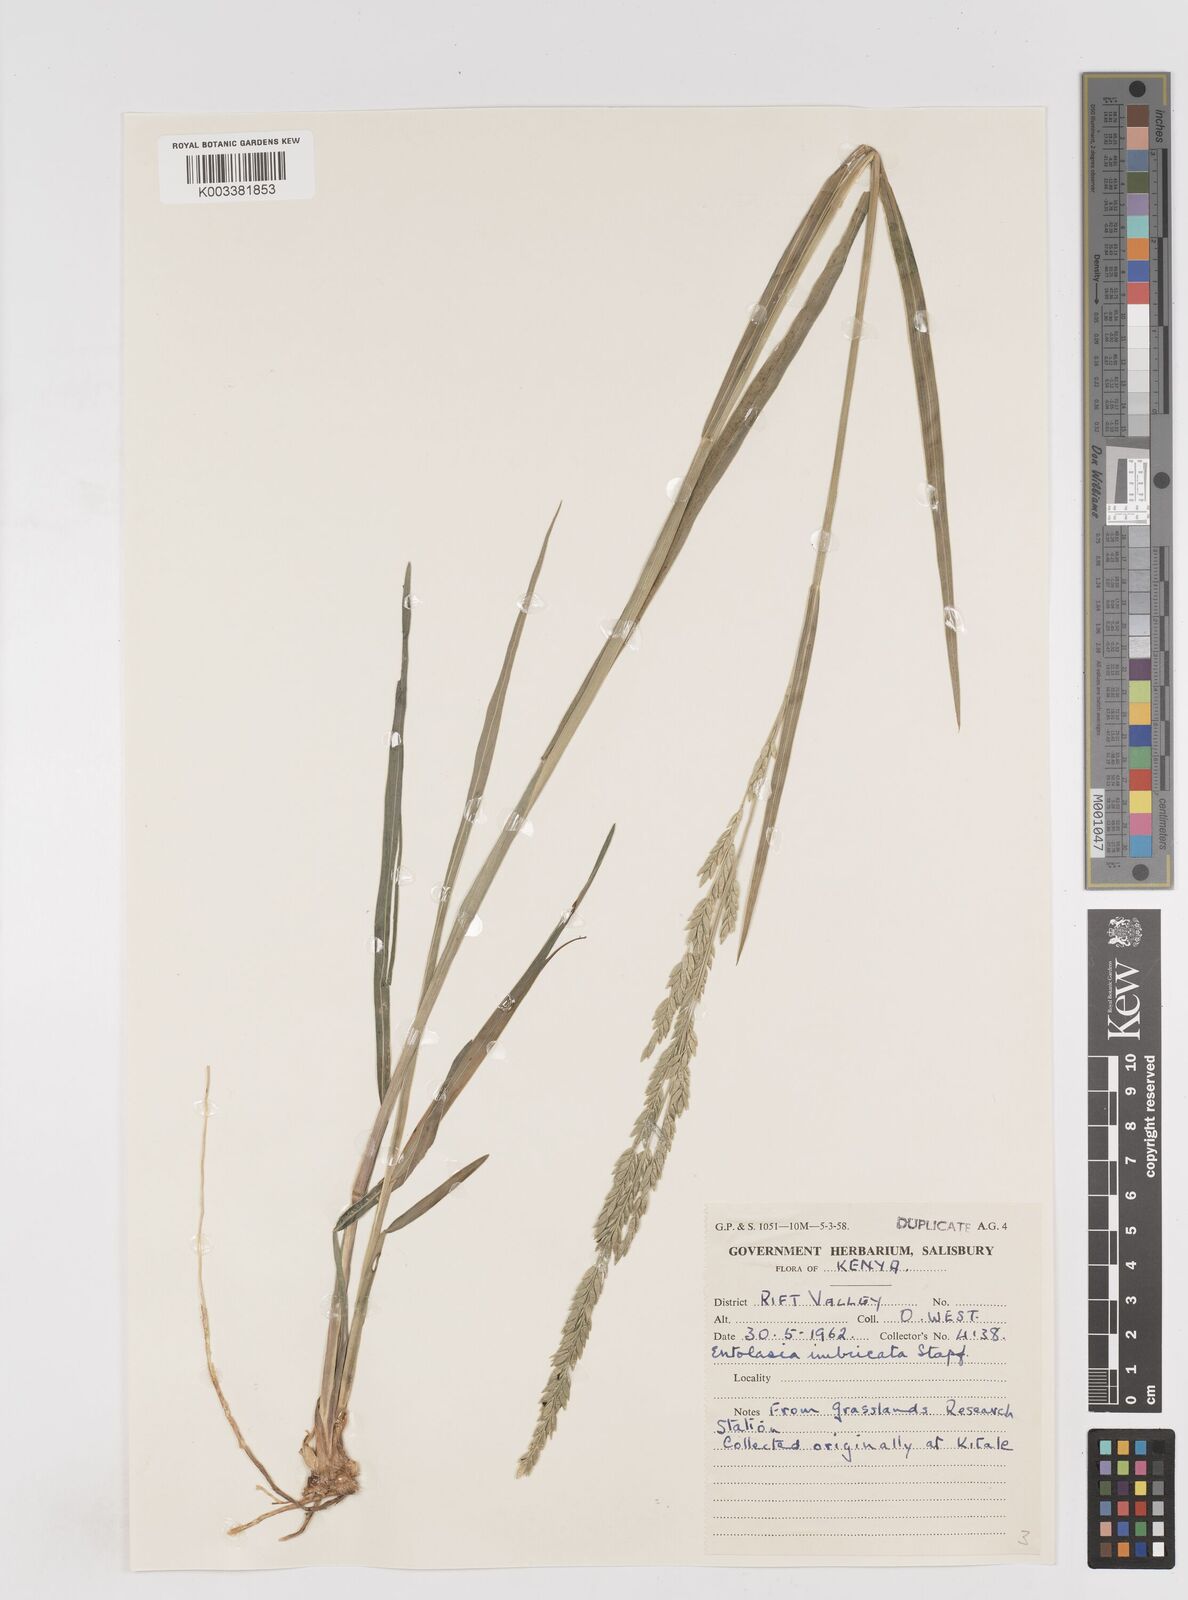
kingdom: Plantae
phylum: Tracheophyta
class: Liliopsida
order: Poales
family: Poaceae
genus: Entolasia
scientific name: Entolasia imbricata
